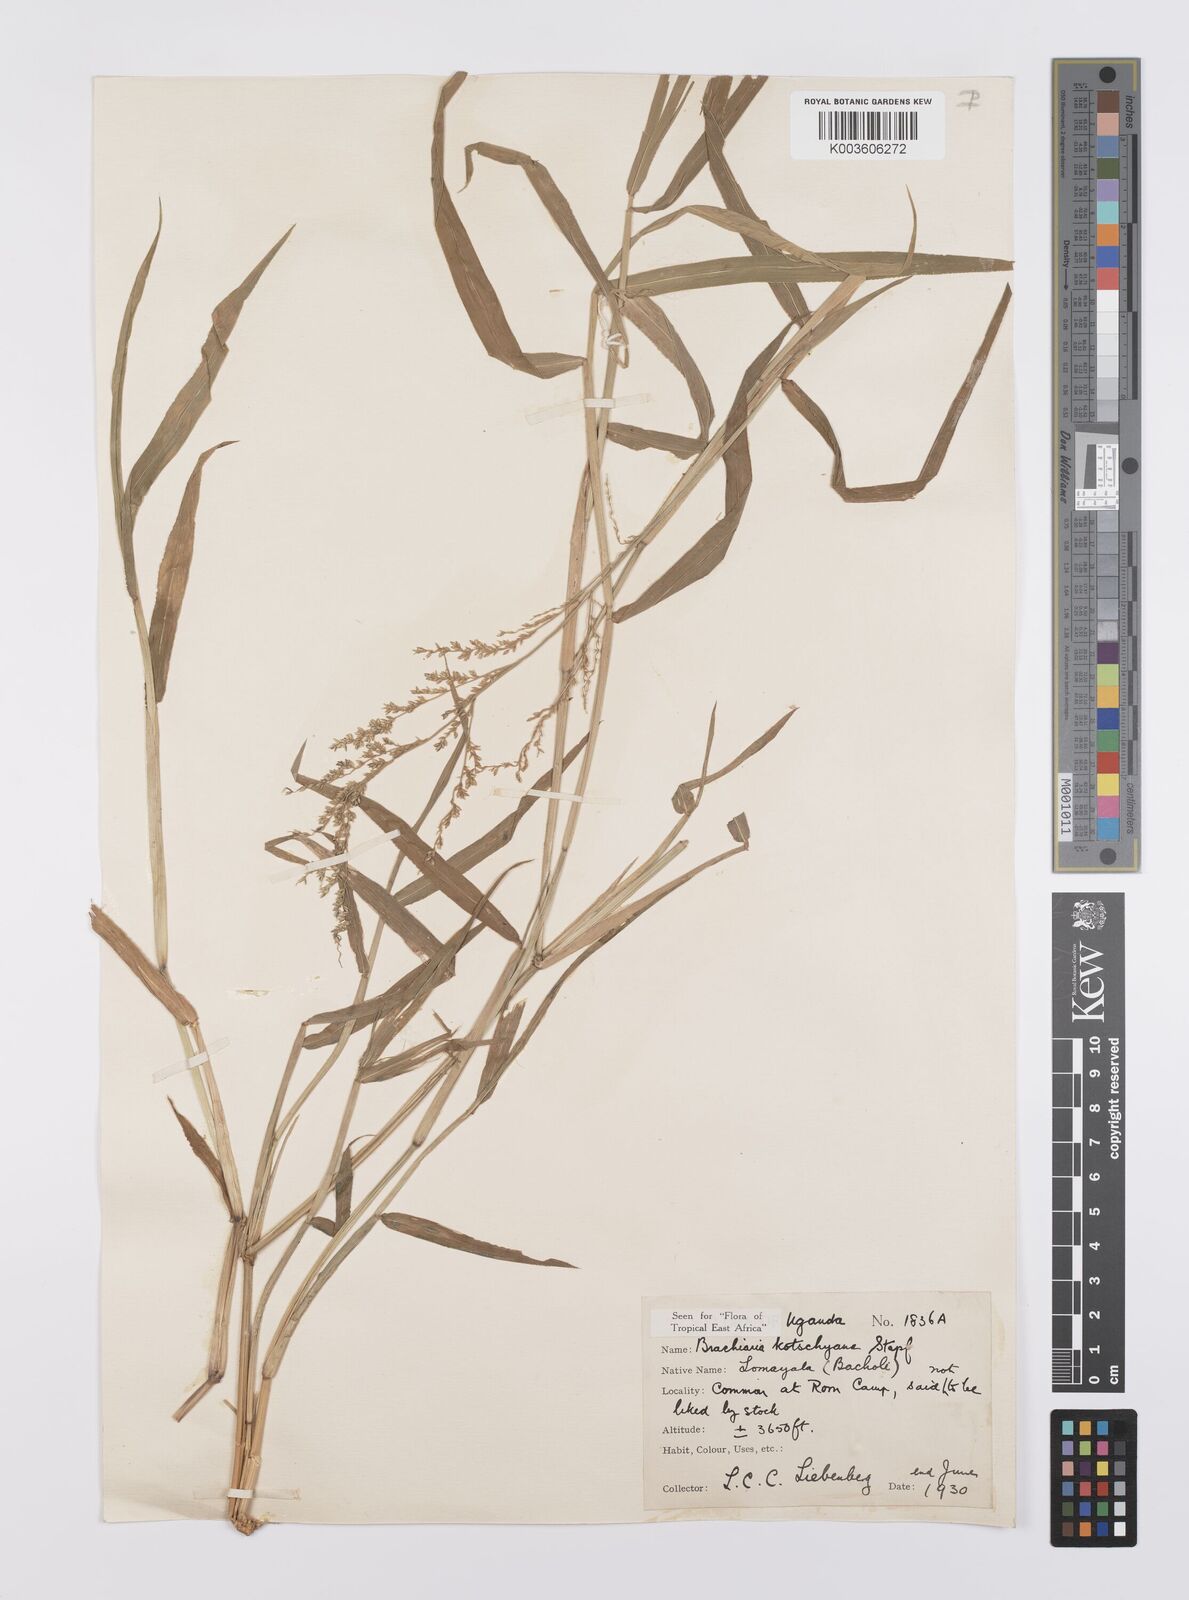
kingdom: Plantae
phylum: Tracheophyta
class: Liliopsida
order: Poales
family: Poaceae
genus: Urochloa
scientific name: Urochloa comata
